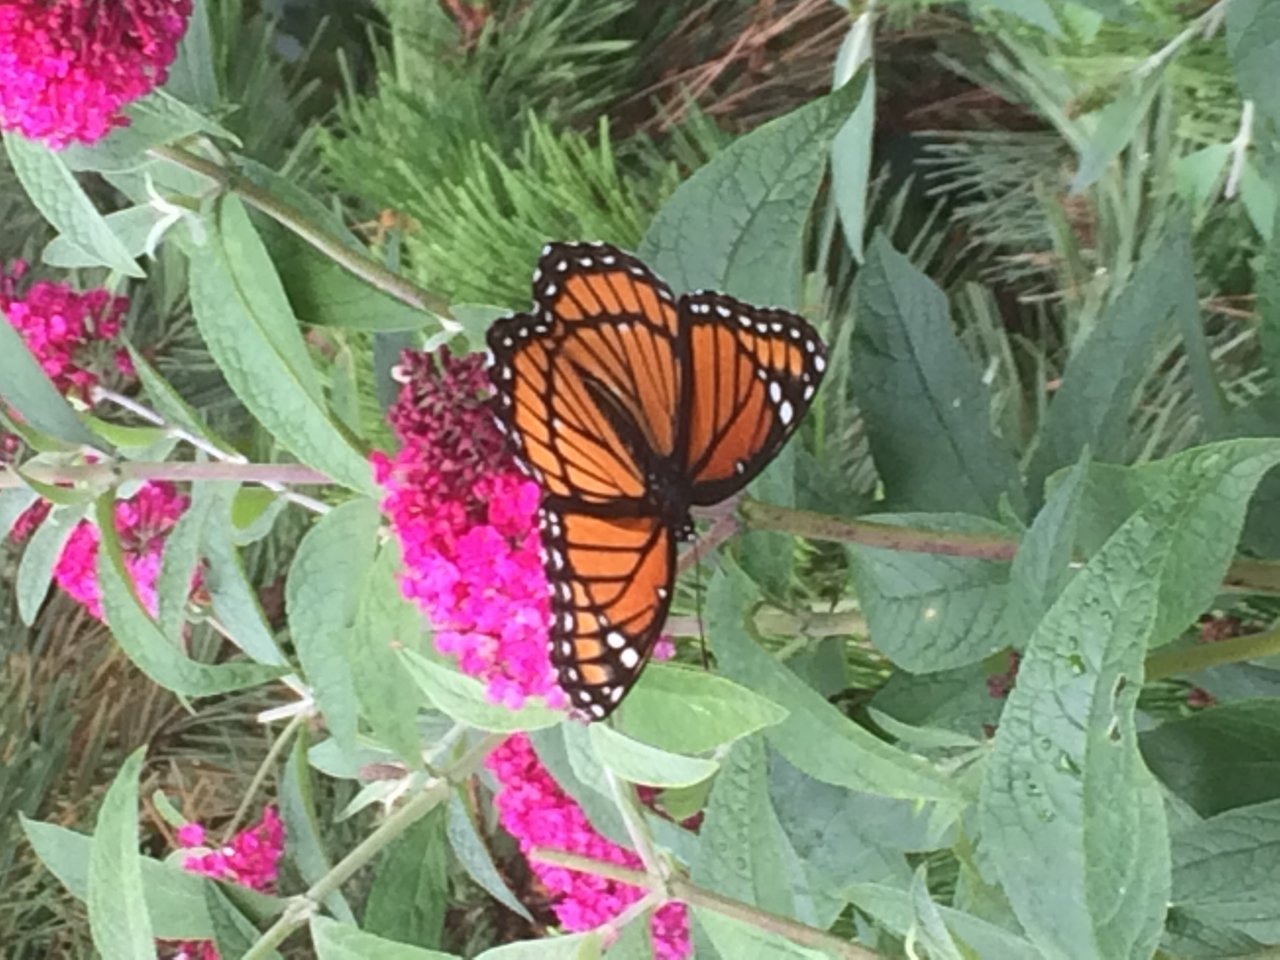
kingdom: Animalia
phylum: Arthropoda
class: Insecta
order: Lepidoptera
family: Nymphalidae
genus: Limenitis
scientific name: Limenitis archippus
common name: Viceroy
